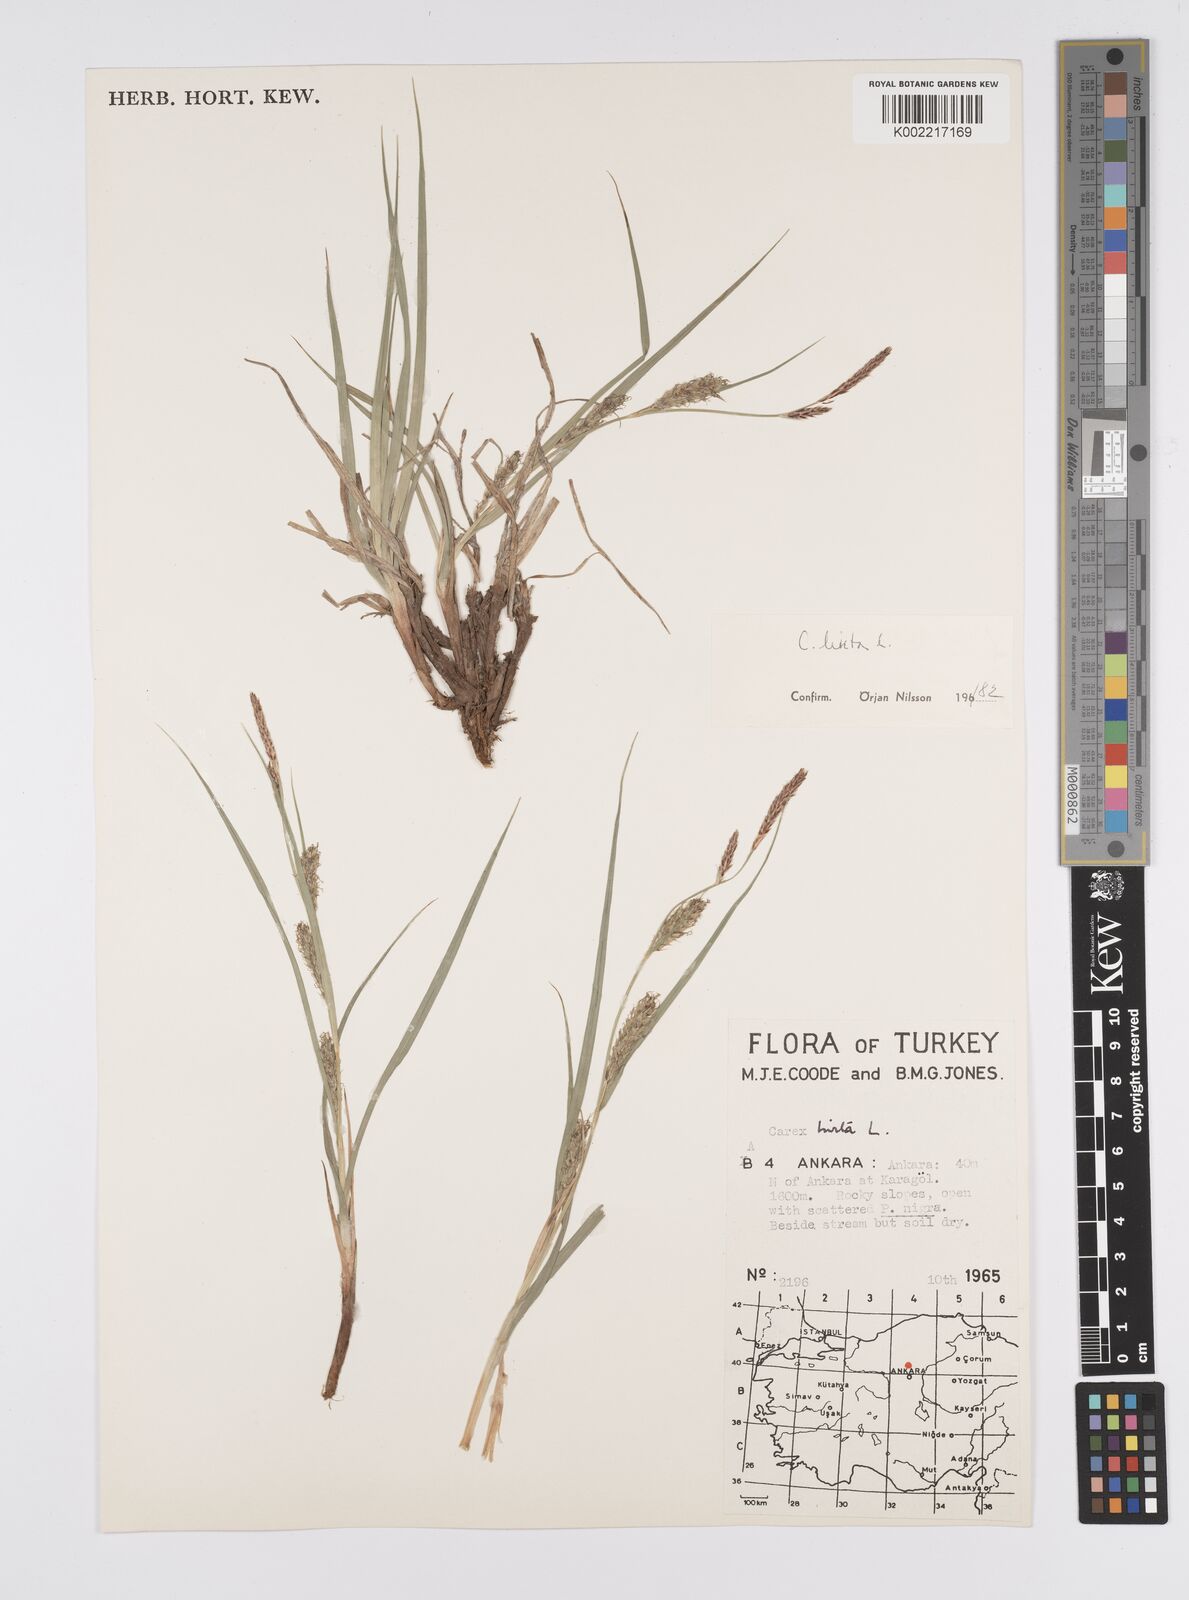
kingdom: Plantae
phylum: Tracheophyta
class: Liliopsida
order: Poales
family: Cyperaceae
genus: Carex
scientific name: Carex hirta
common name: Hairy sedge
